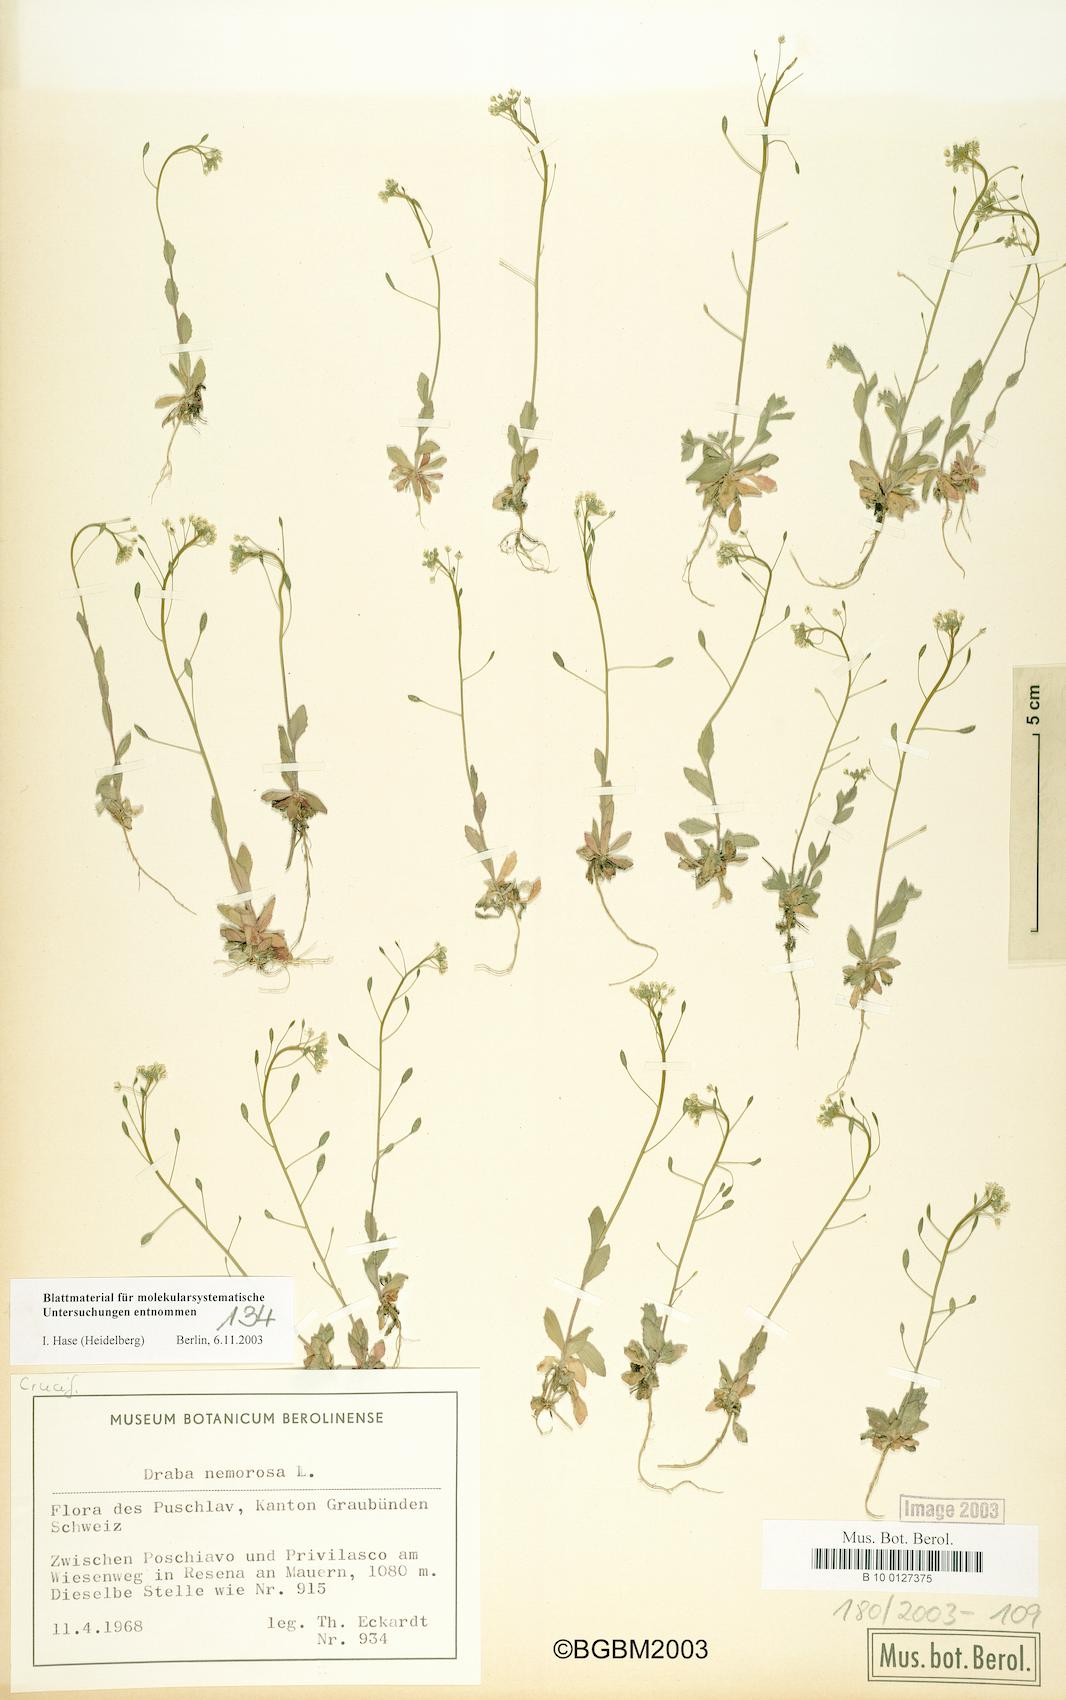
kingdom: Plantae
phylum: Tracheophyta
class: Magnoliopsida
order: Brassicales
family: Brassicaceae
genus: Draba
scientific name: Draba nemorosa
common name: Wood whitlow-grass
